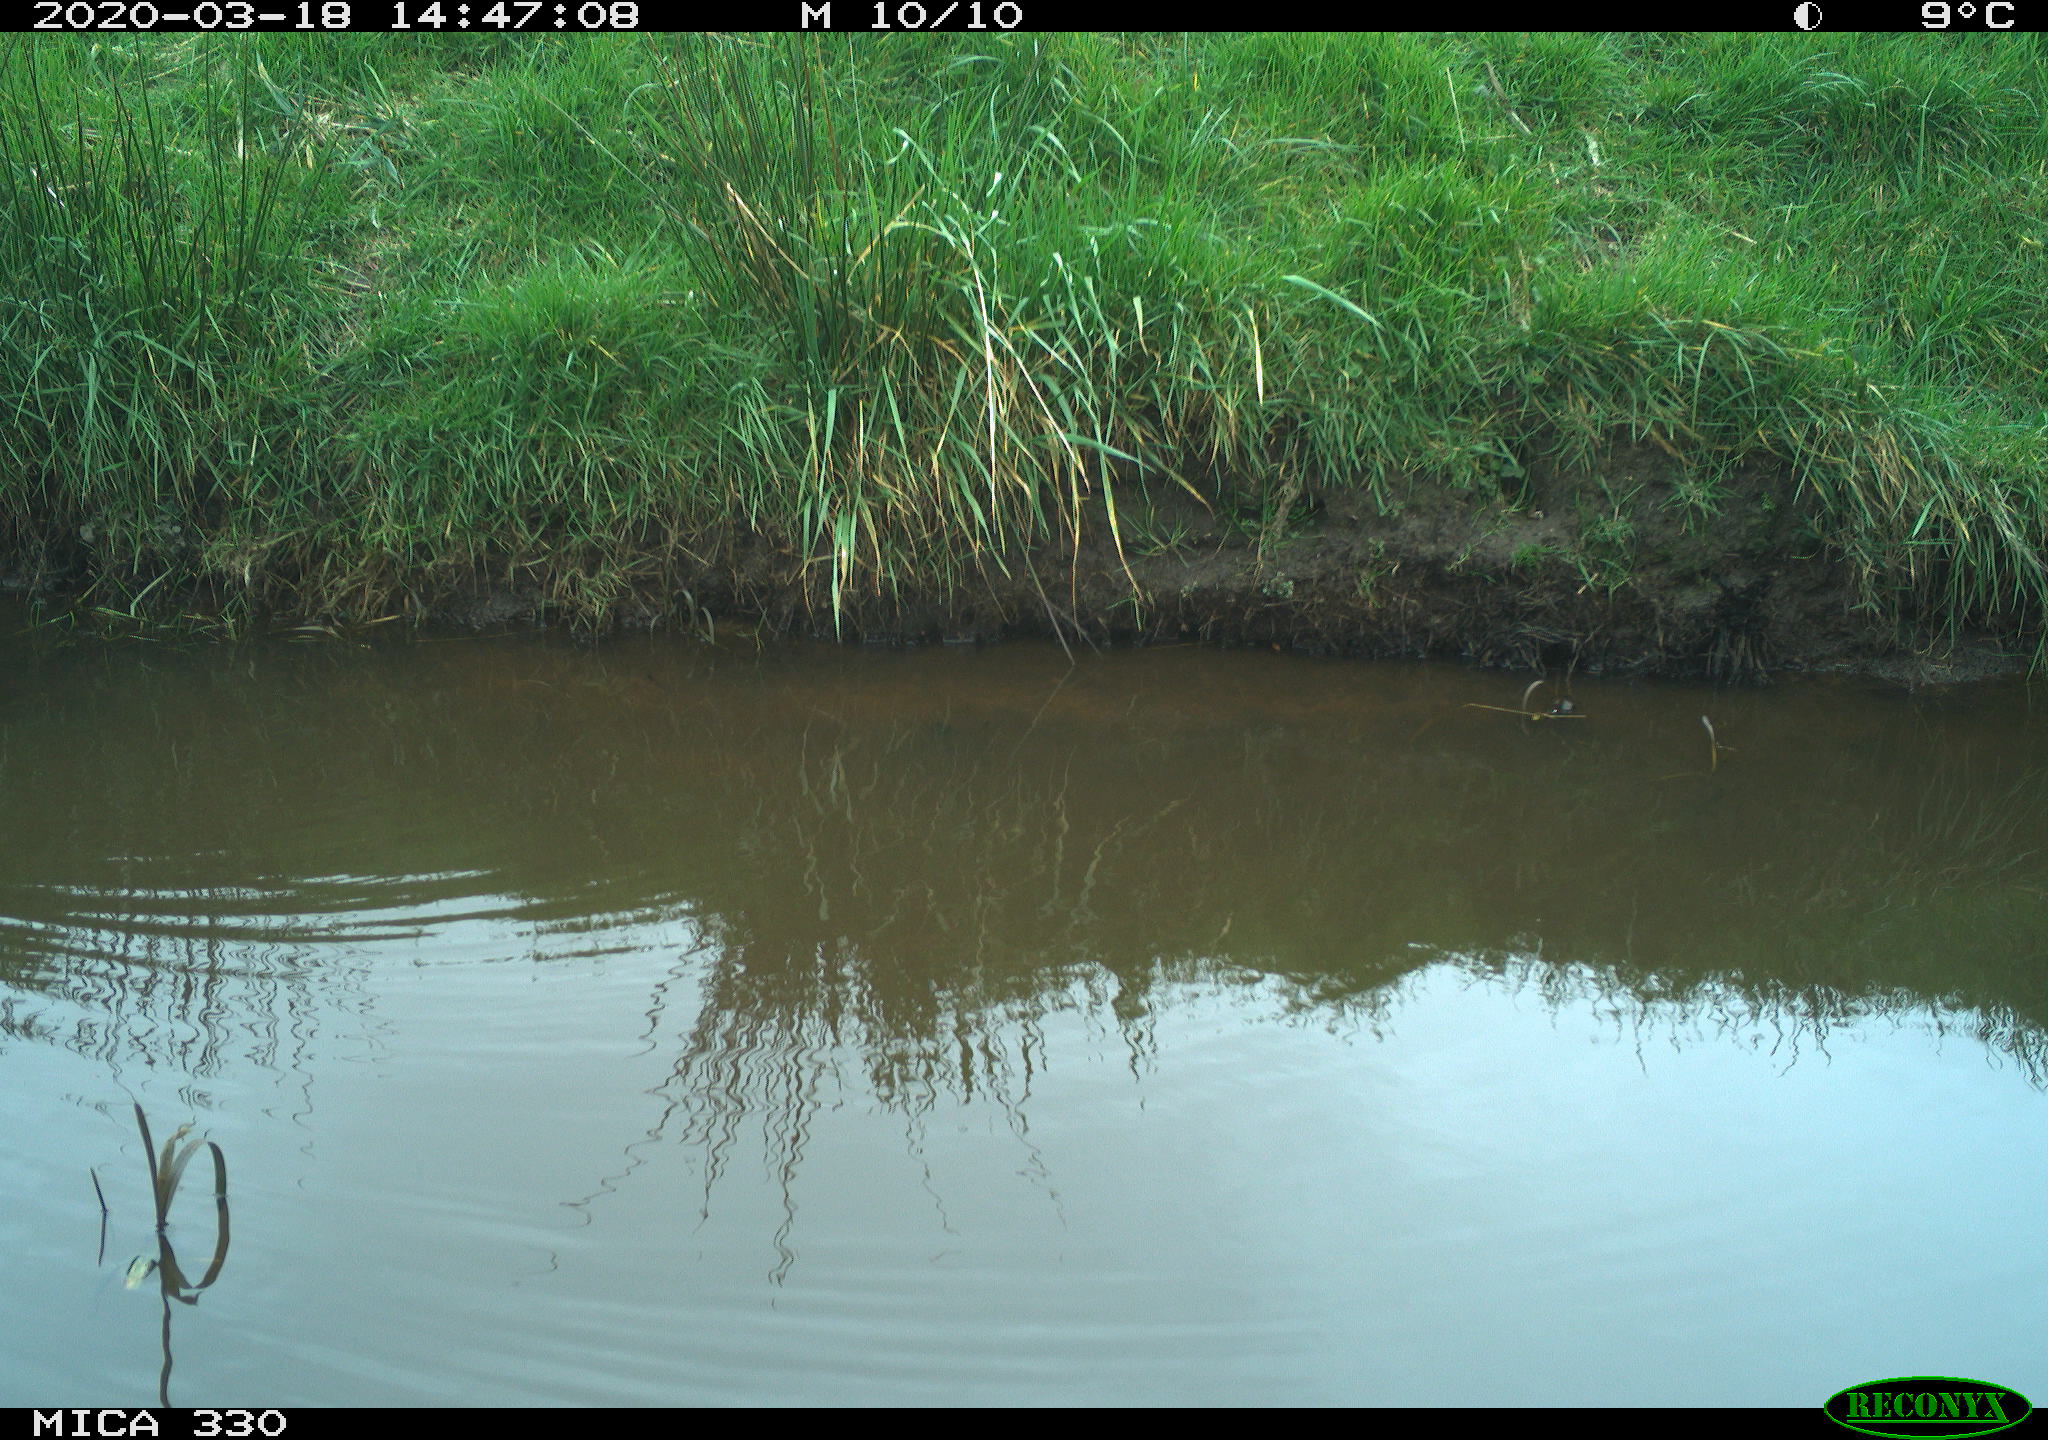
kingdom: Animalia
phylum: Chordata
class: Aves
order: Gruiformes
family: Rallidae
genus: Gallinula
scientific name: Gallinula chloropus
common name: Common moorhen
